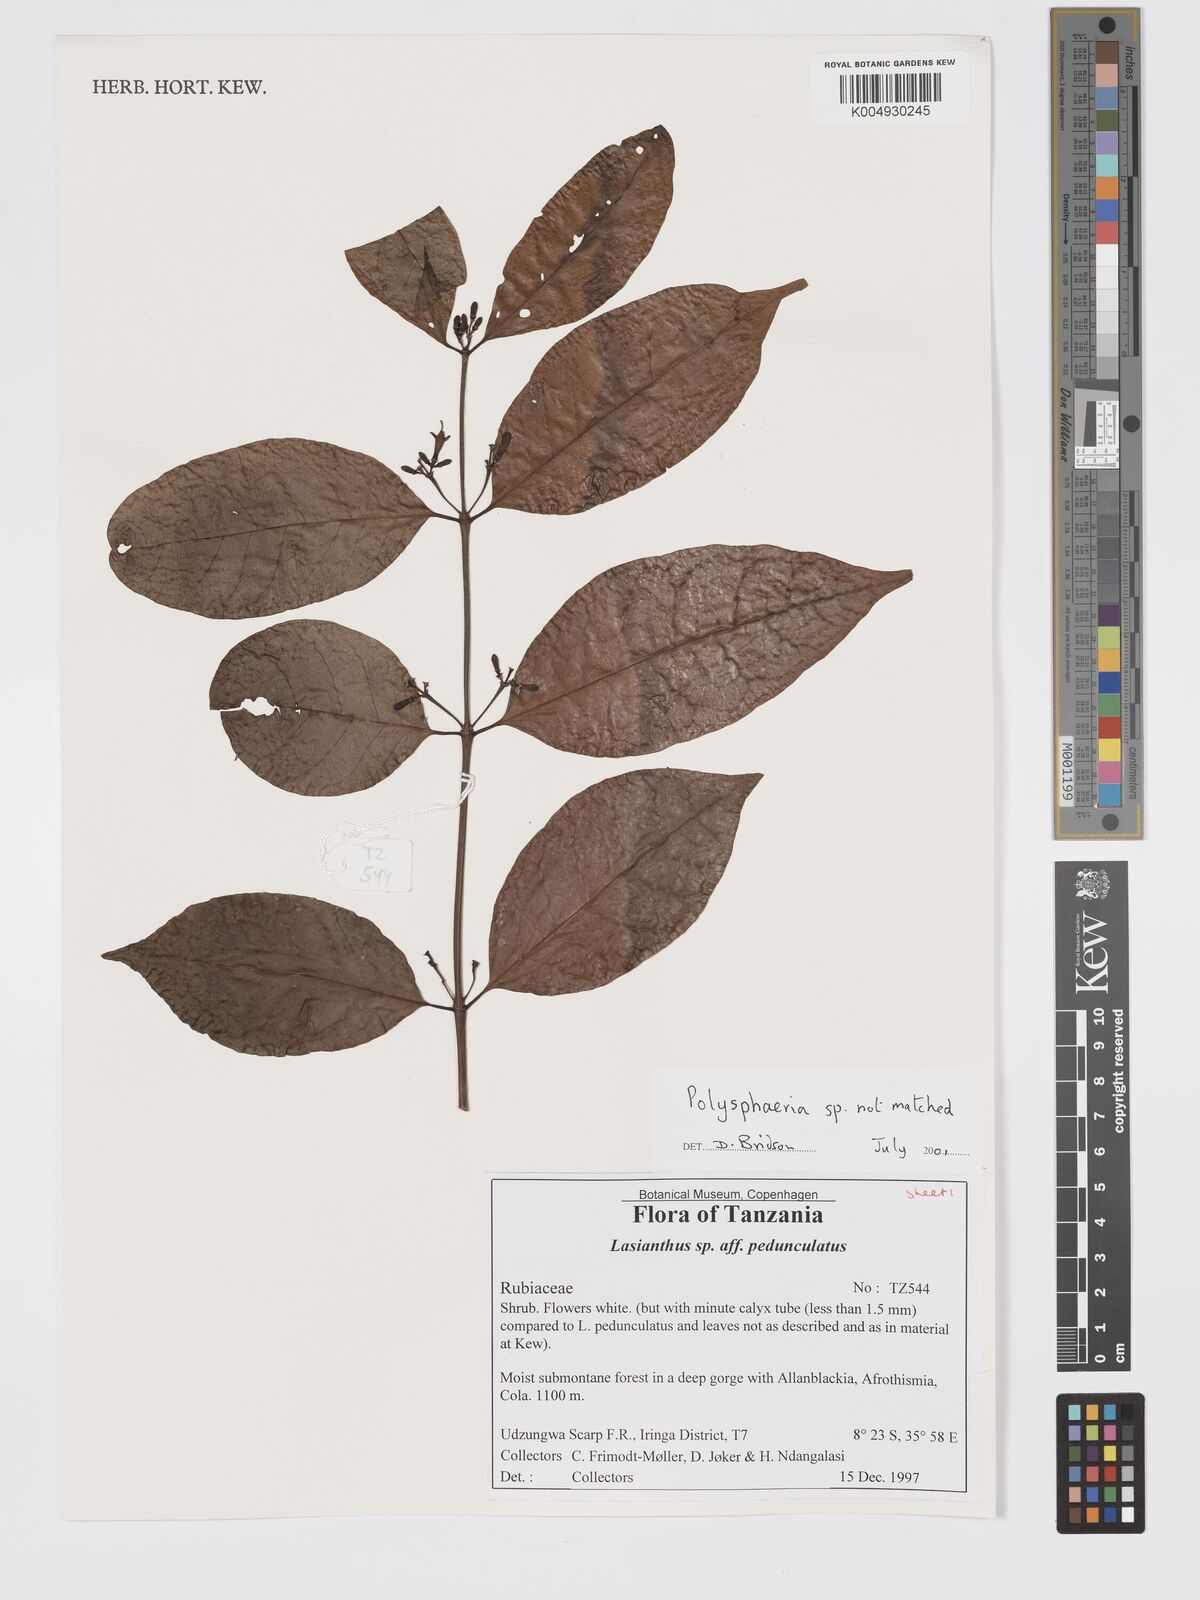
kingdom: Plantae
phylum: Tracheophyta
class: Magnoliopsida
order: Gentianales
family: Rubiaceae
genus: Polysphaeria
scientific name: Polysphaeria lanceolata
